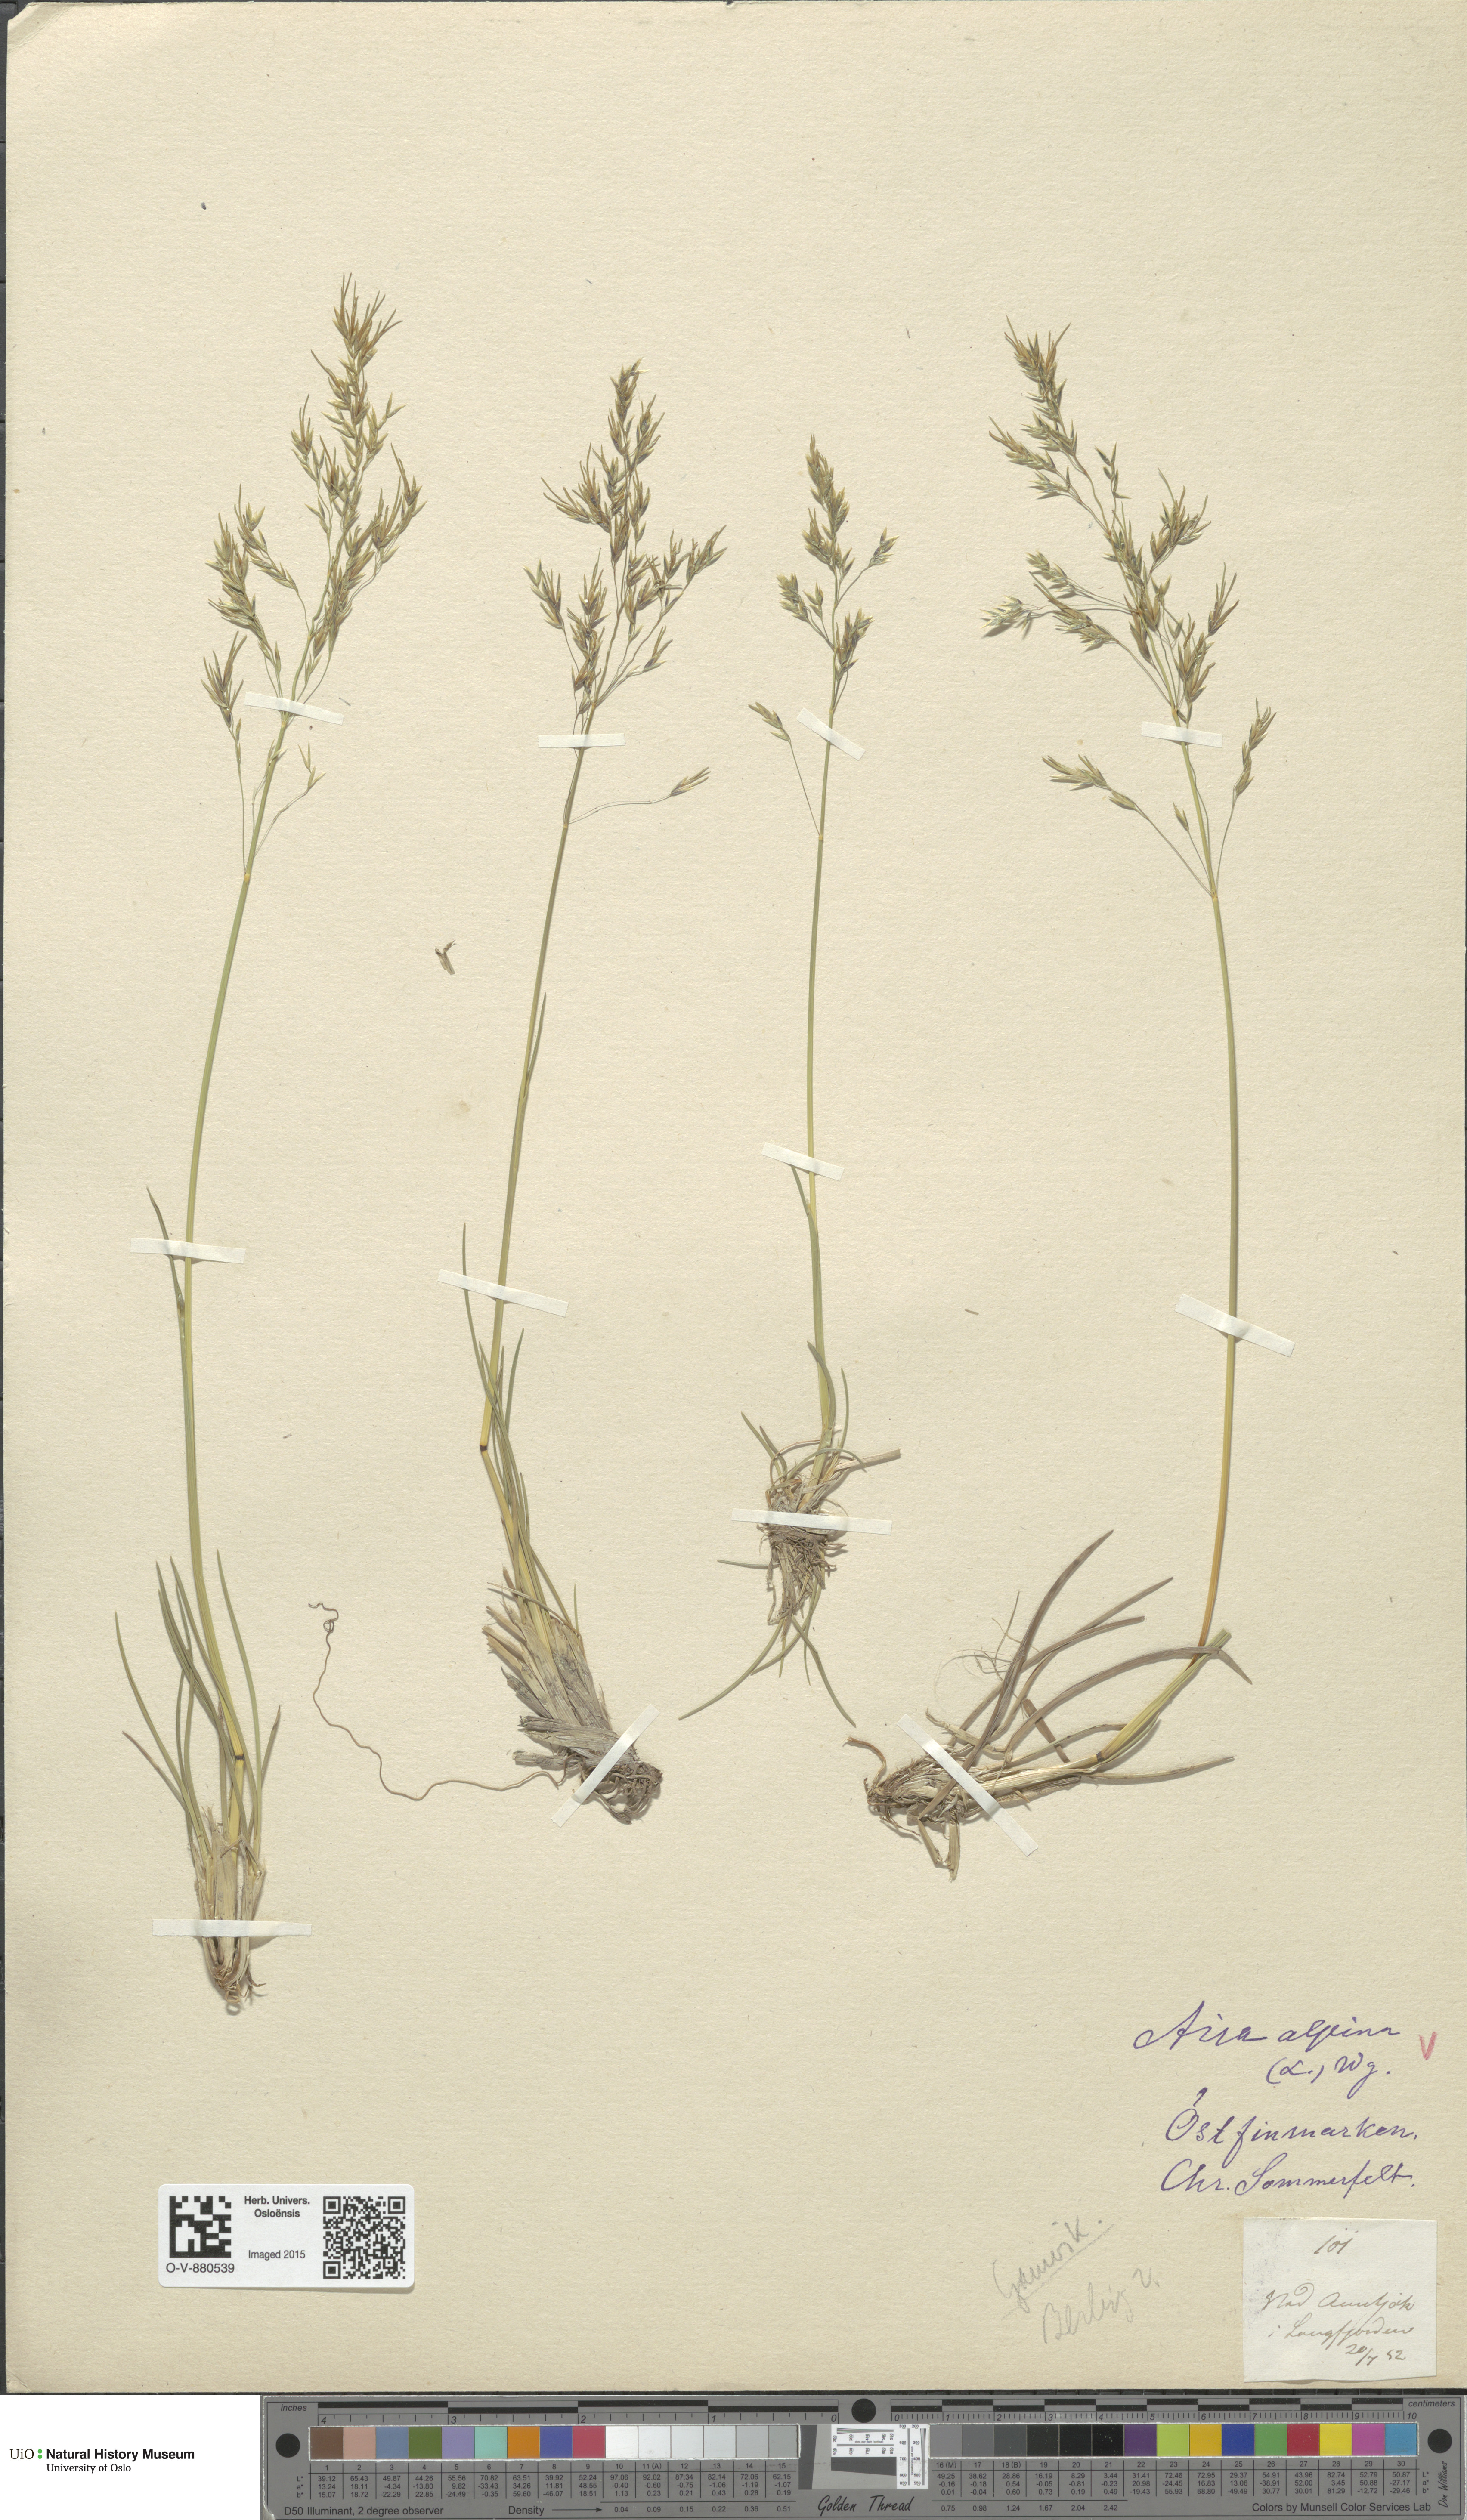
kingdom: Plantae
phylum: Tracheophyta
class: Liliopsida
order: Poales
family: Poaceae
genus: Deschampsia
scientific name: Deschampsia cespitosa
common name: Tufted hair-grass
